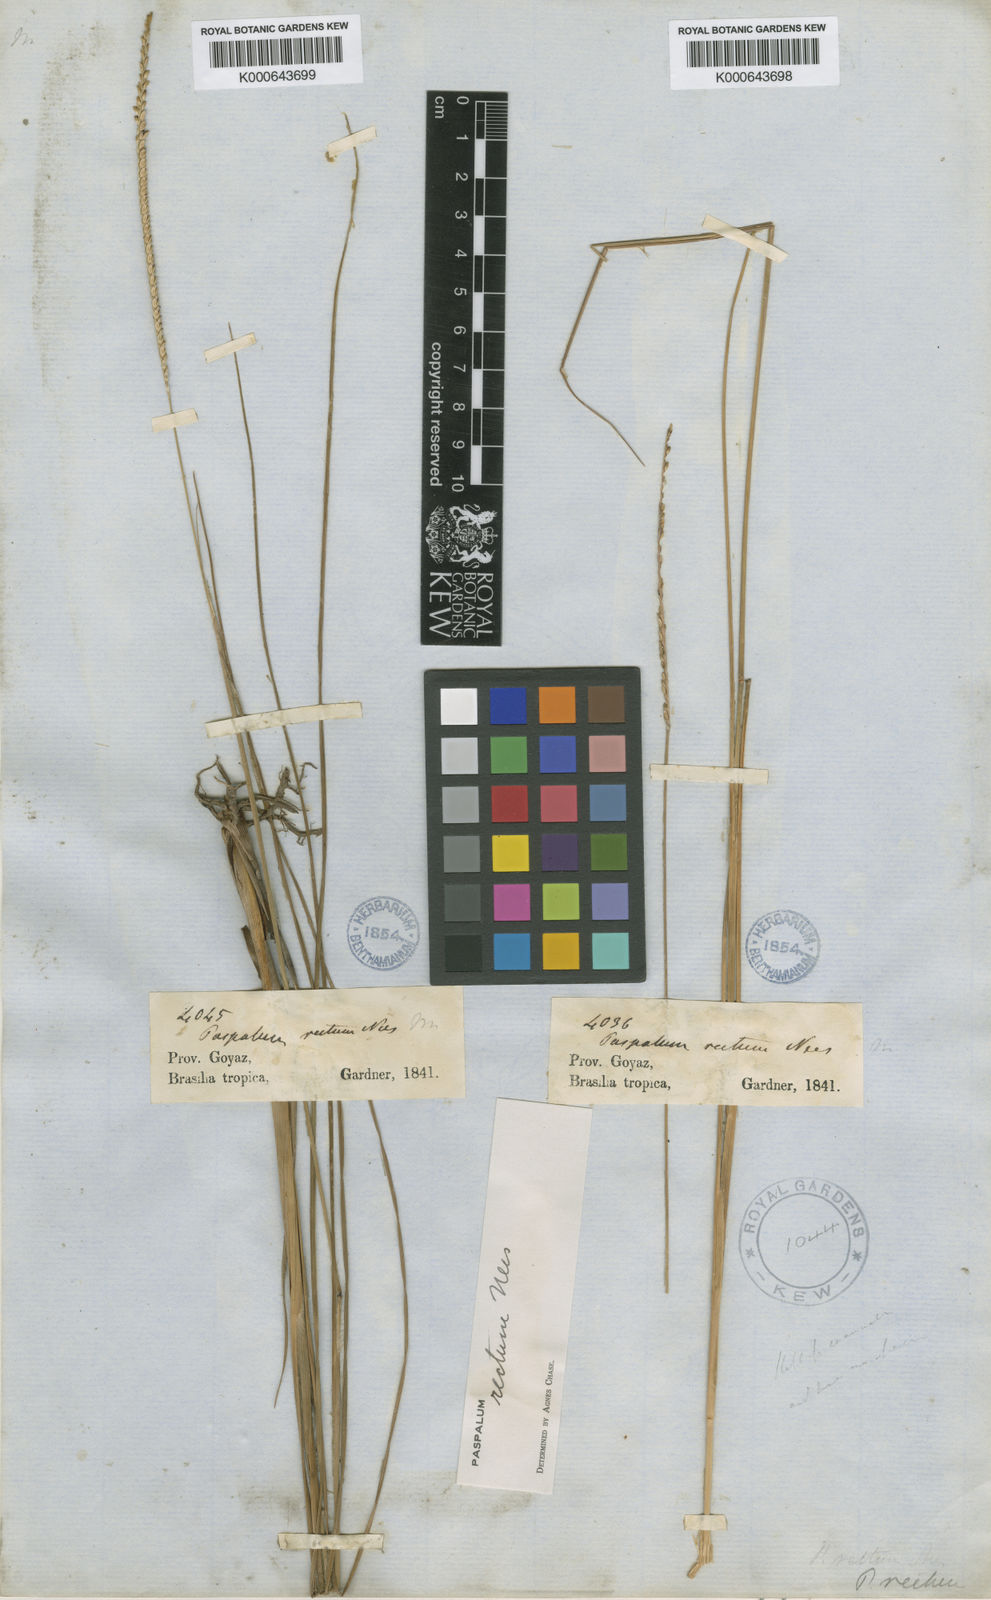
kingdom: Plantae
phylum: Tracheophyta
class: Liliopsida
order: Poales
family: Poaceae
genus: Paspalum
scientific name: Paspalum rectum
